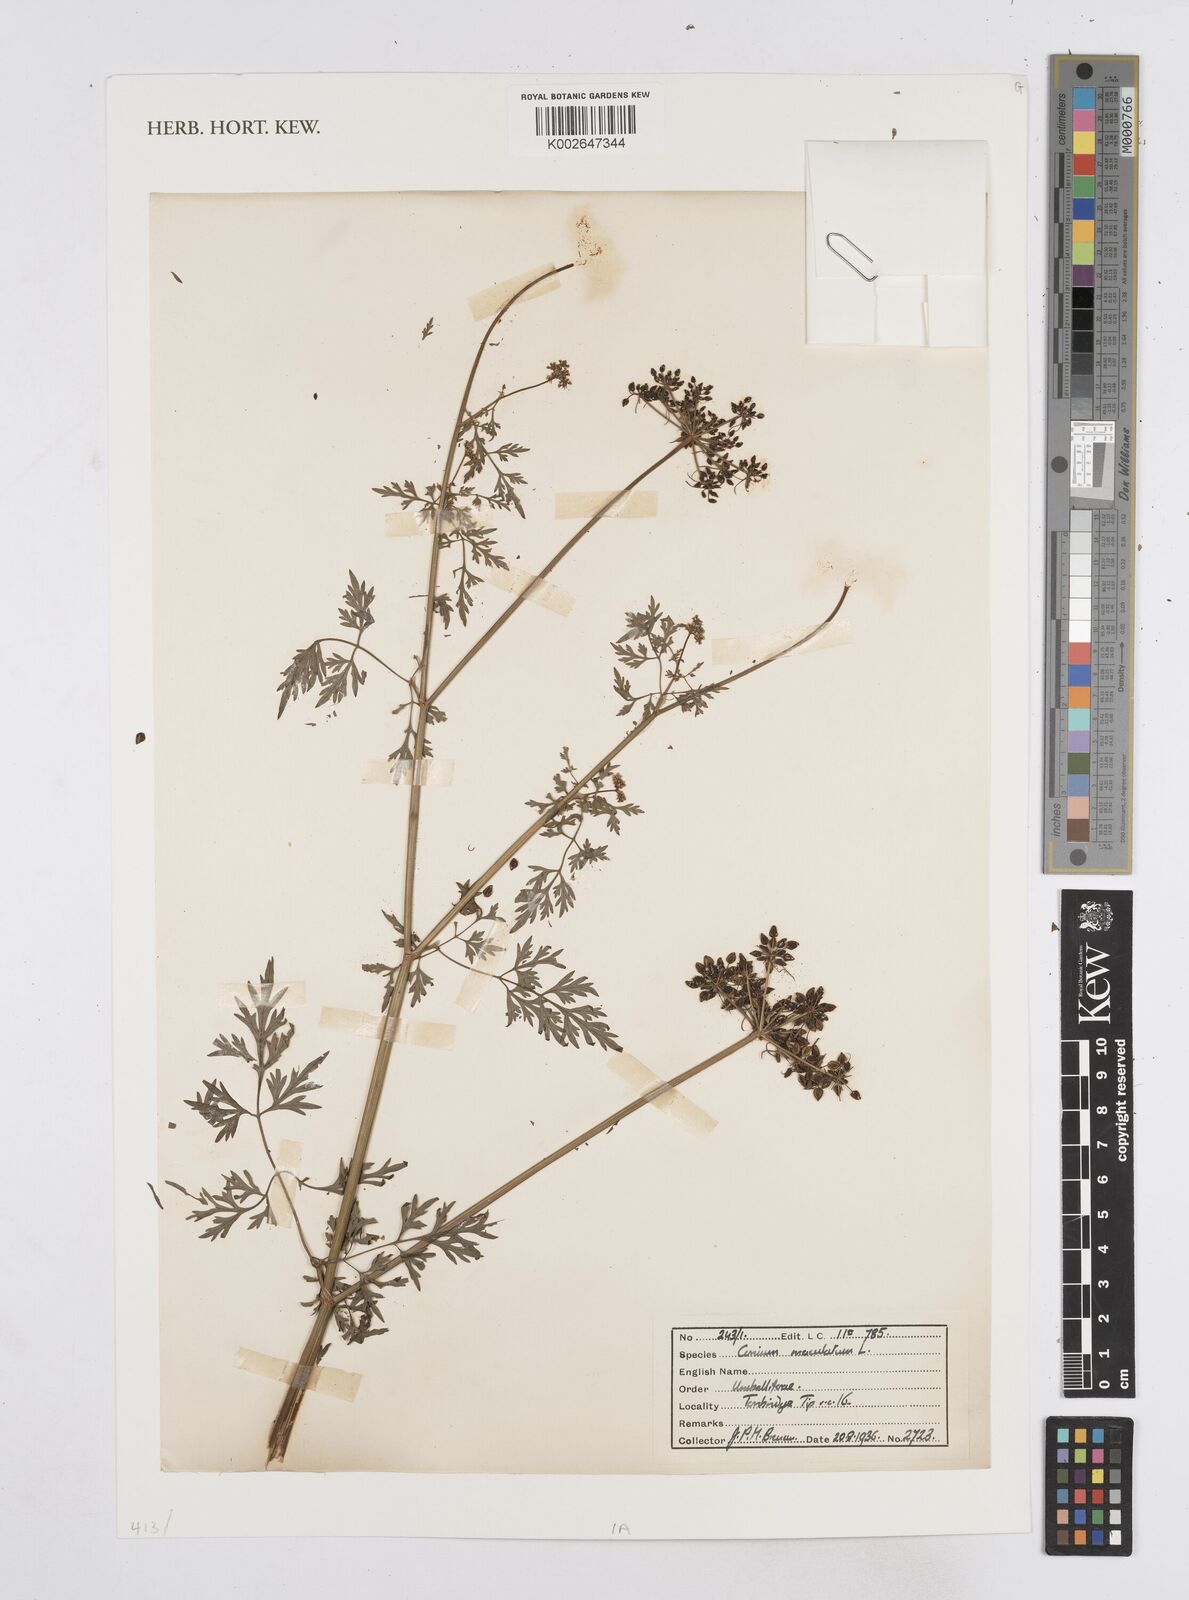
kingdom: Plantae
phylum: Tracheophyta
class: Magnoliopsida
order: Apiales
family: Apiaceae
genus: Conium
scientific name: Conium maculatum
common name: Hemlock
